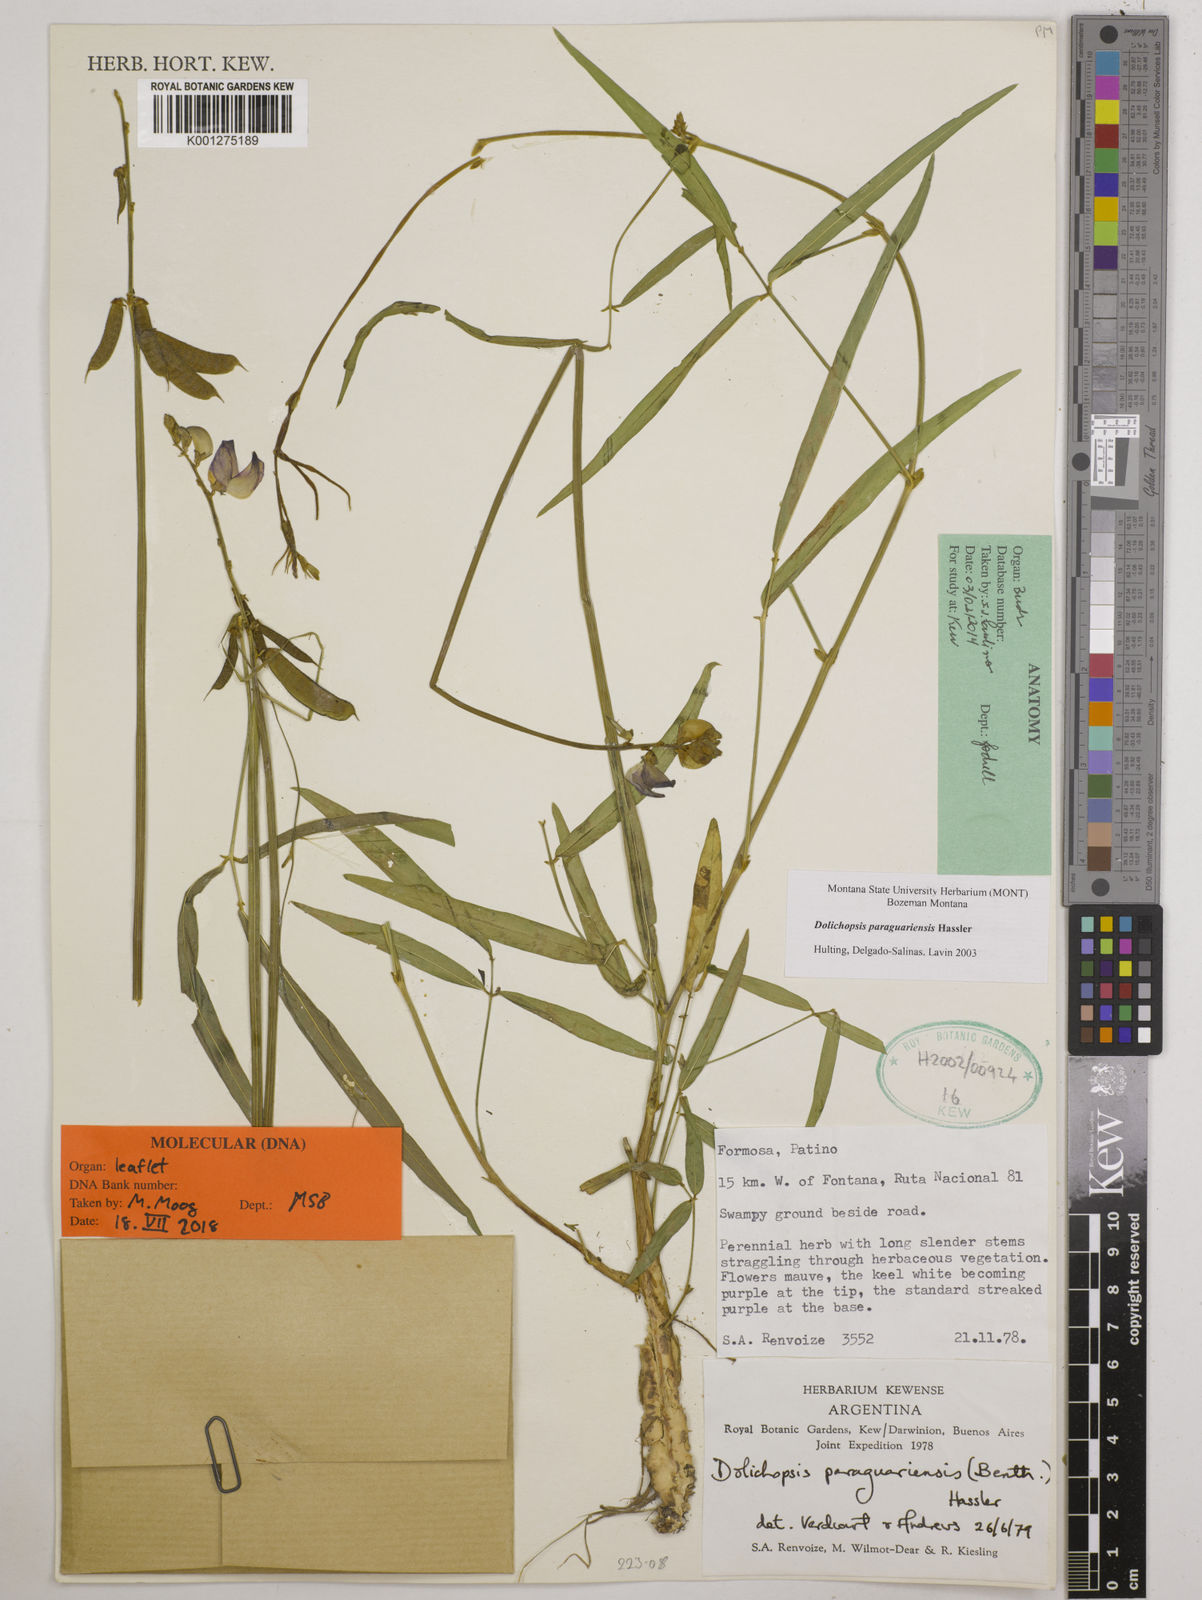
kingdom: Plantae
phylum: Tracheophyta
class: Magnoliopsida
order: Fabales
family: Fabaceae
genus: Dolichopsis
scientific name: Dolichopsis paraguariensis
